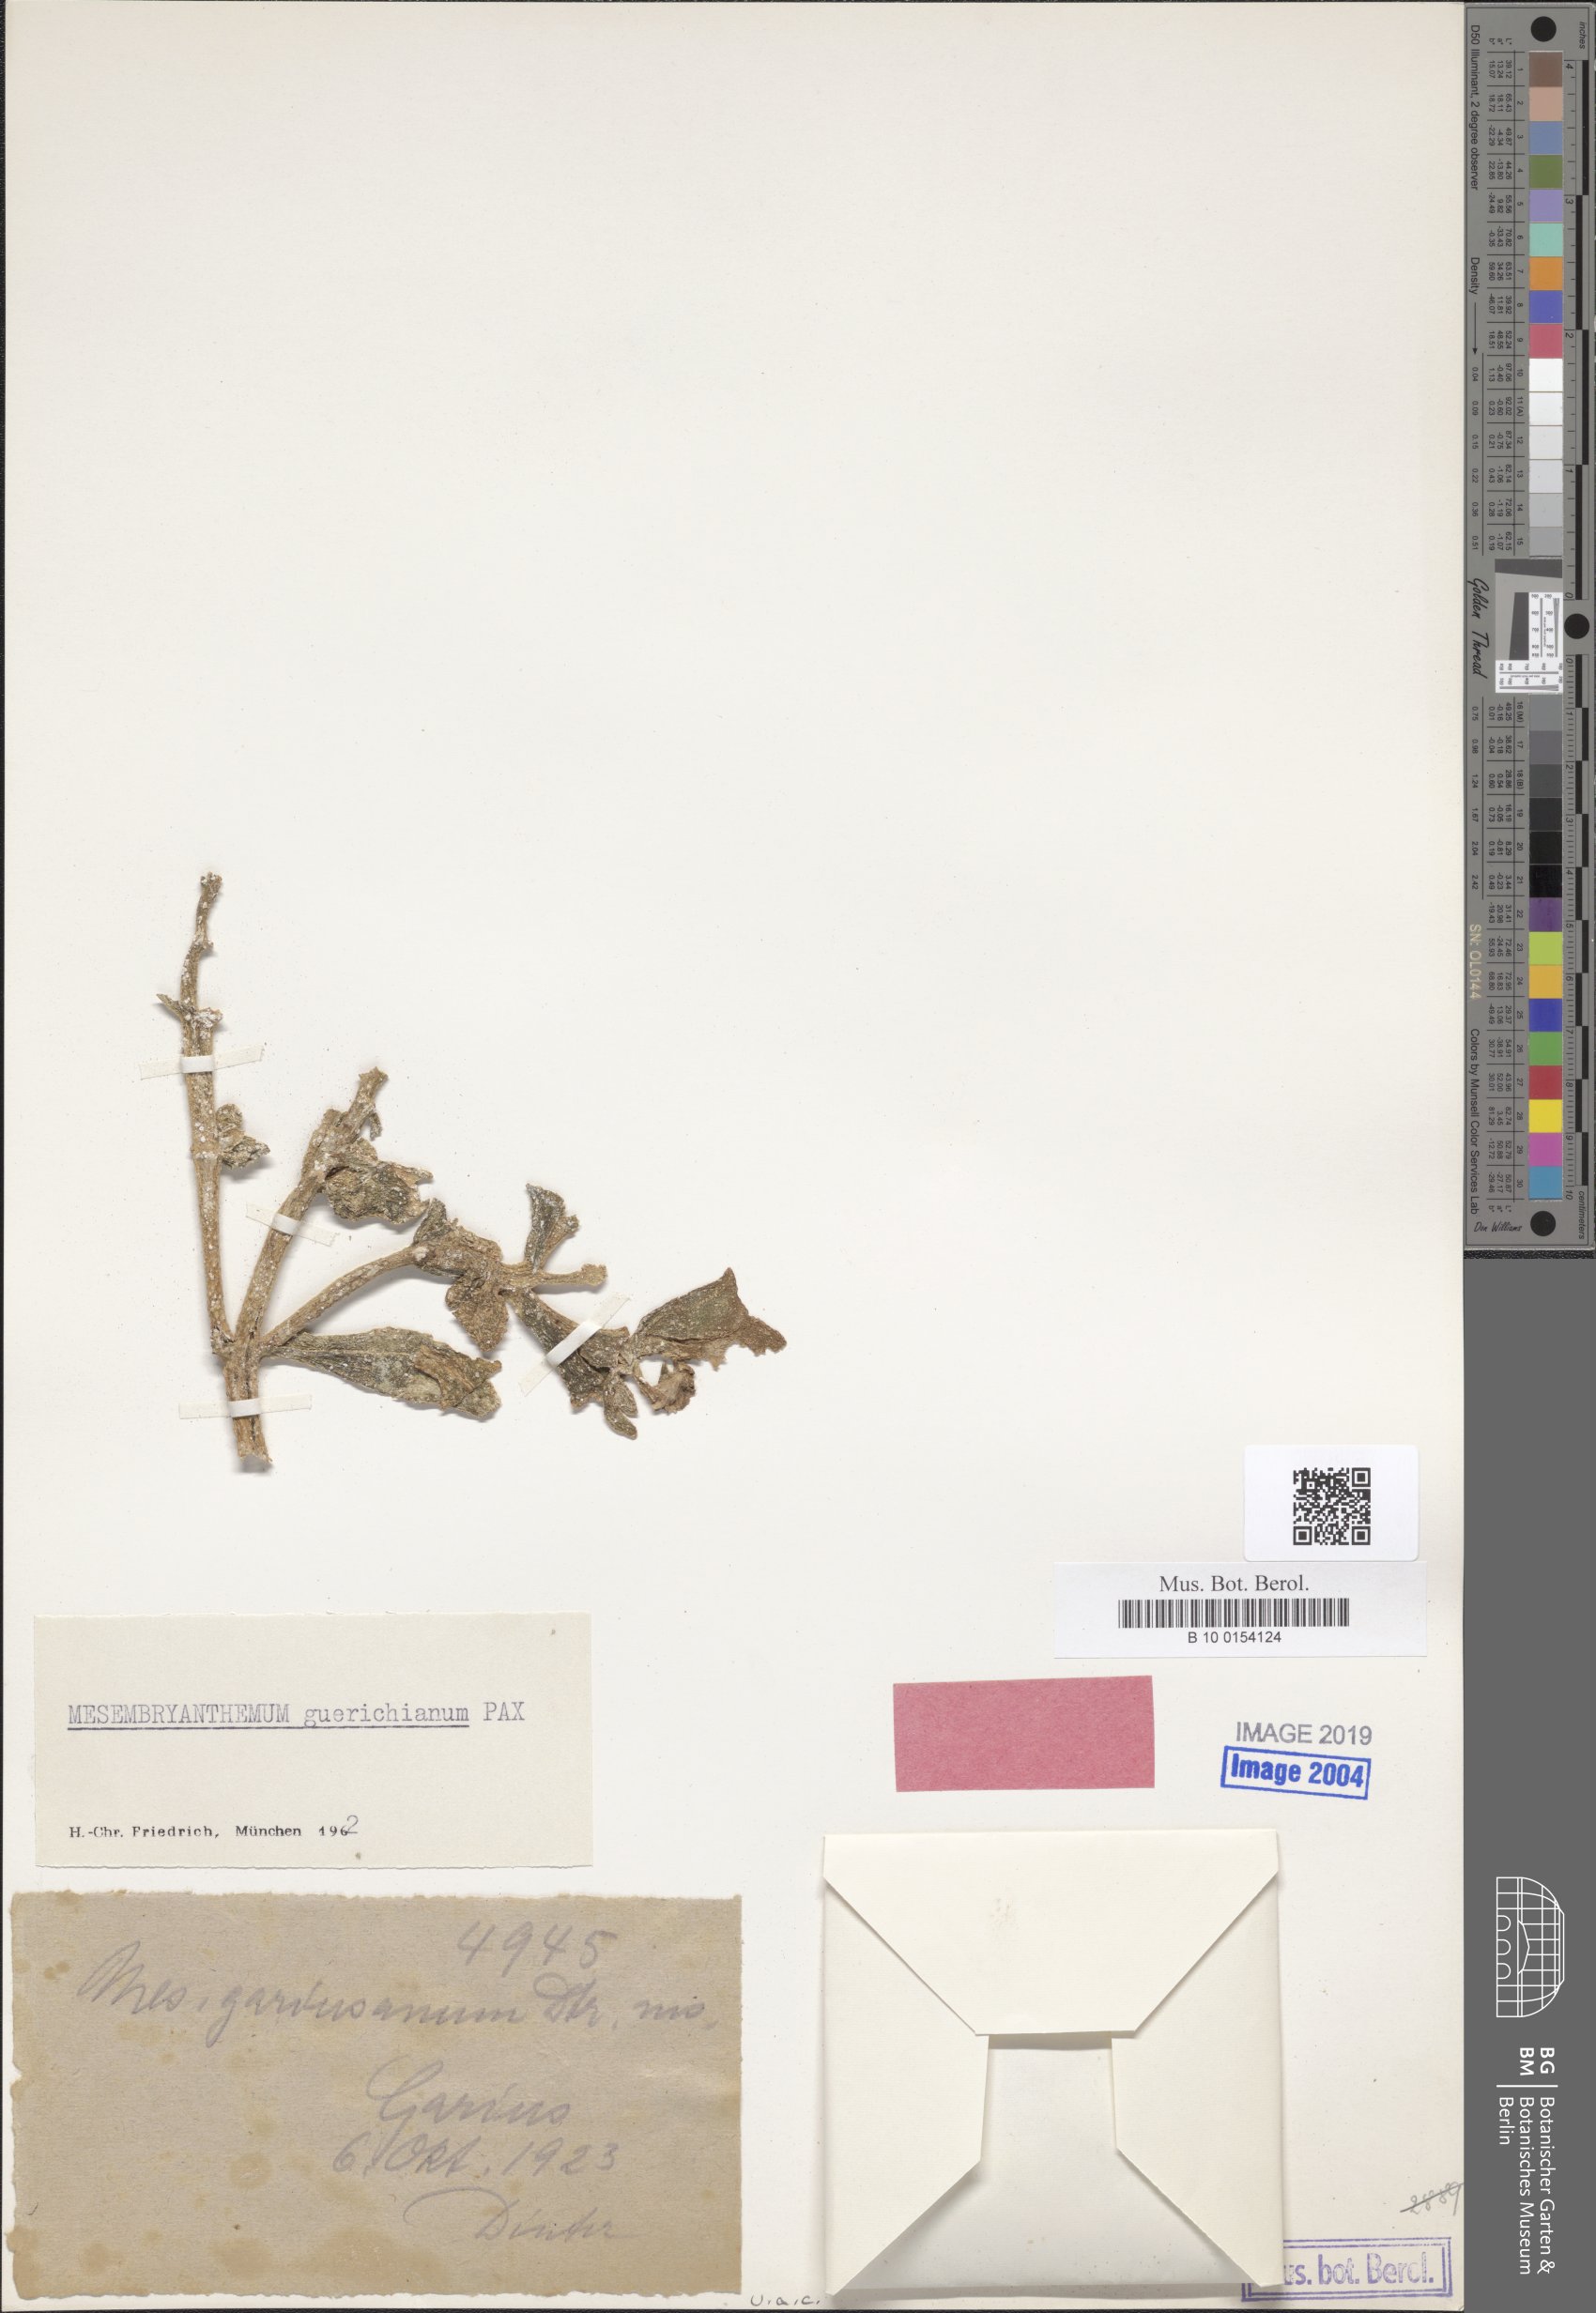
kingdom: Plantae
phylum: Tracheophyta
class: Magnoliopsida
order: Caryophyllales
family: Aizoaceae
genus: Mesembryanthemum
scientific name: Mesembryanthemum guerichianum
